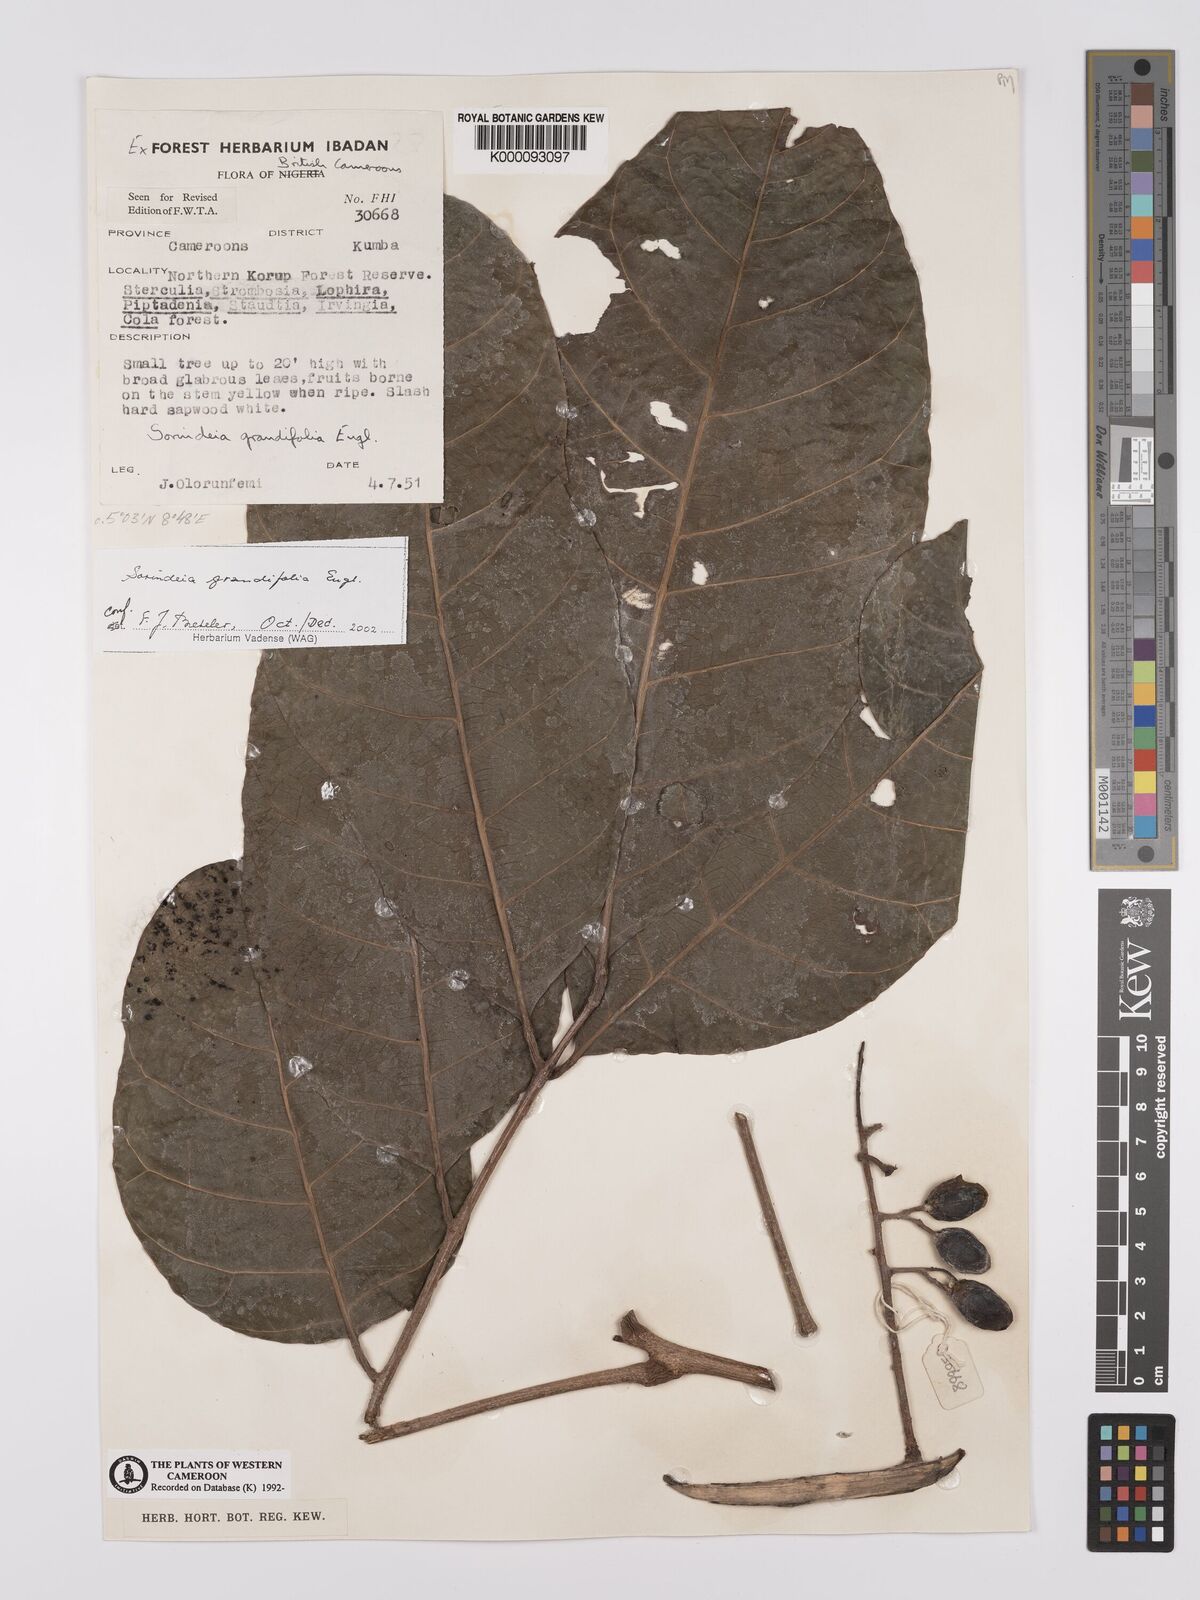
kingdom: Plantae
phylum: Tracheophyta
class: Magnoliopsida
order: Sapindales
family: Anacardiaceae
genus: Sorindeia
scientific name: Sorindeia grandifolia
